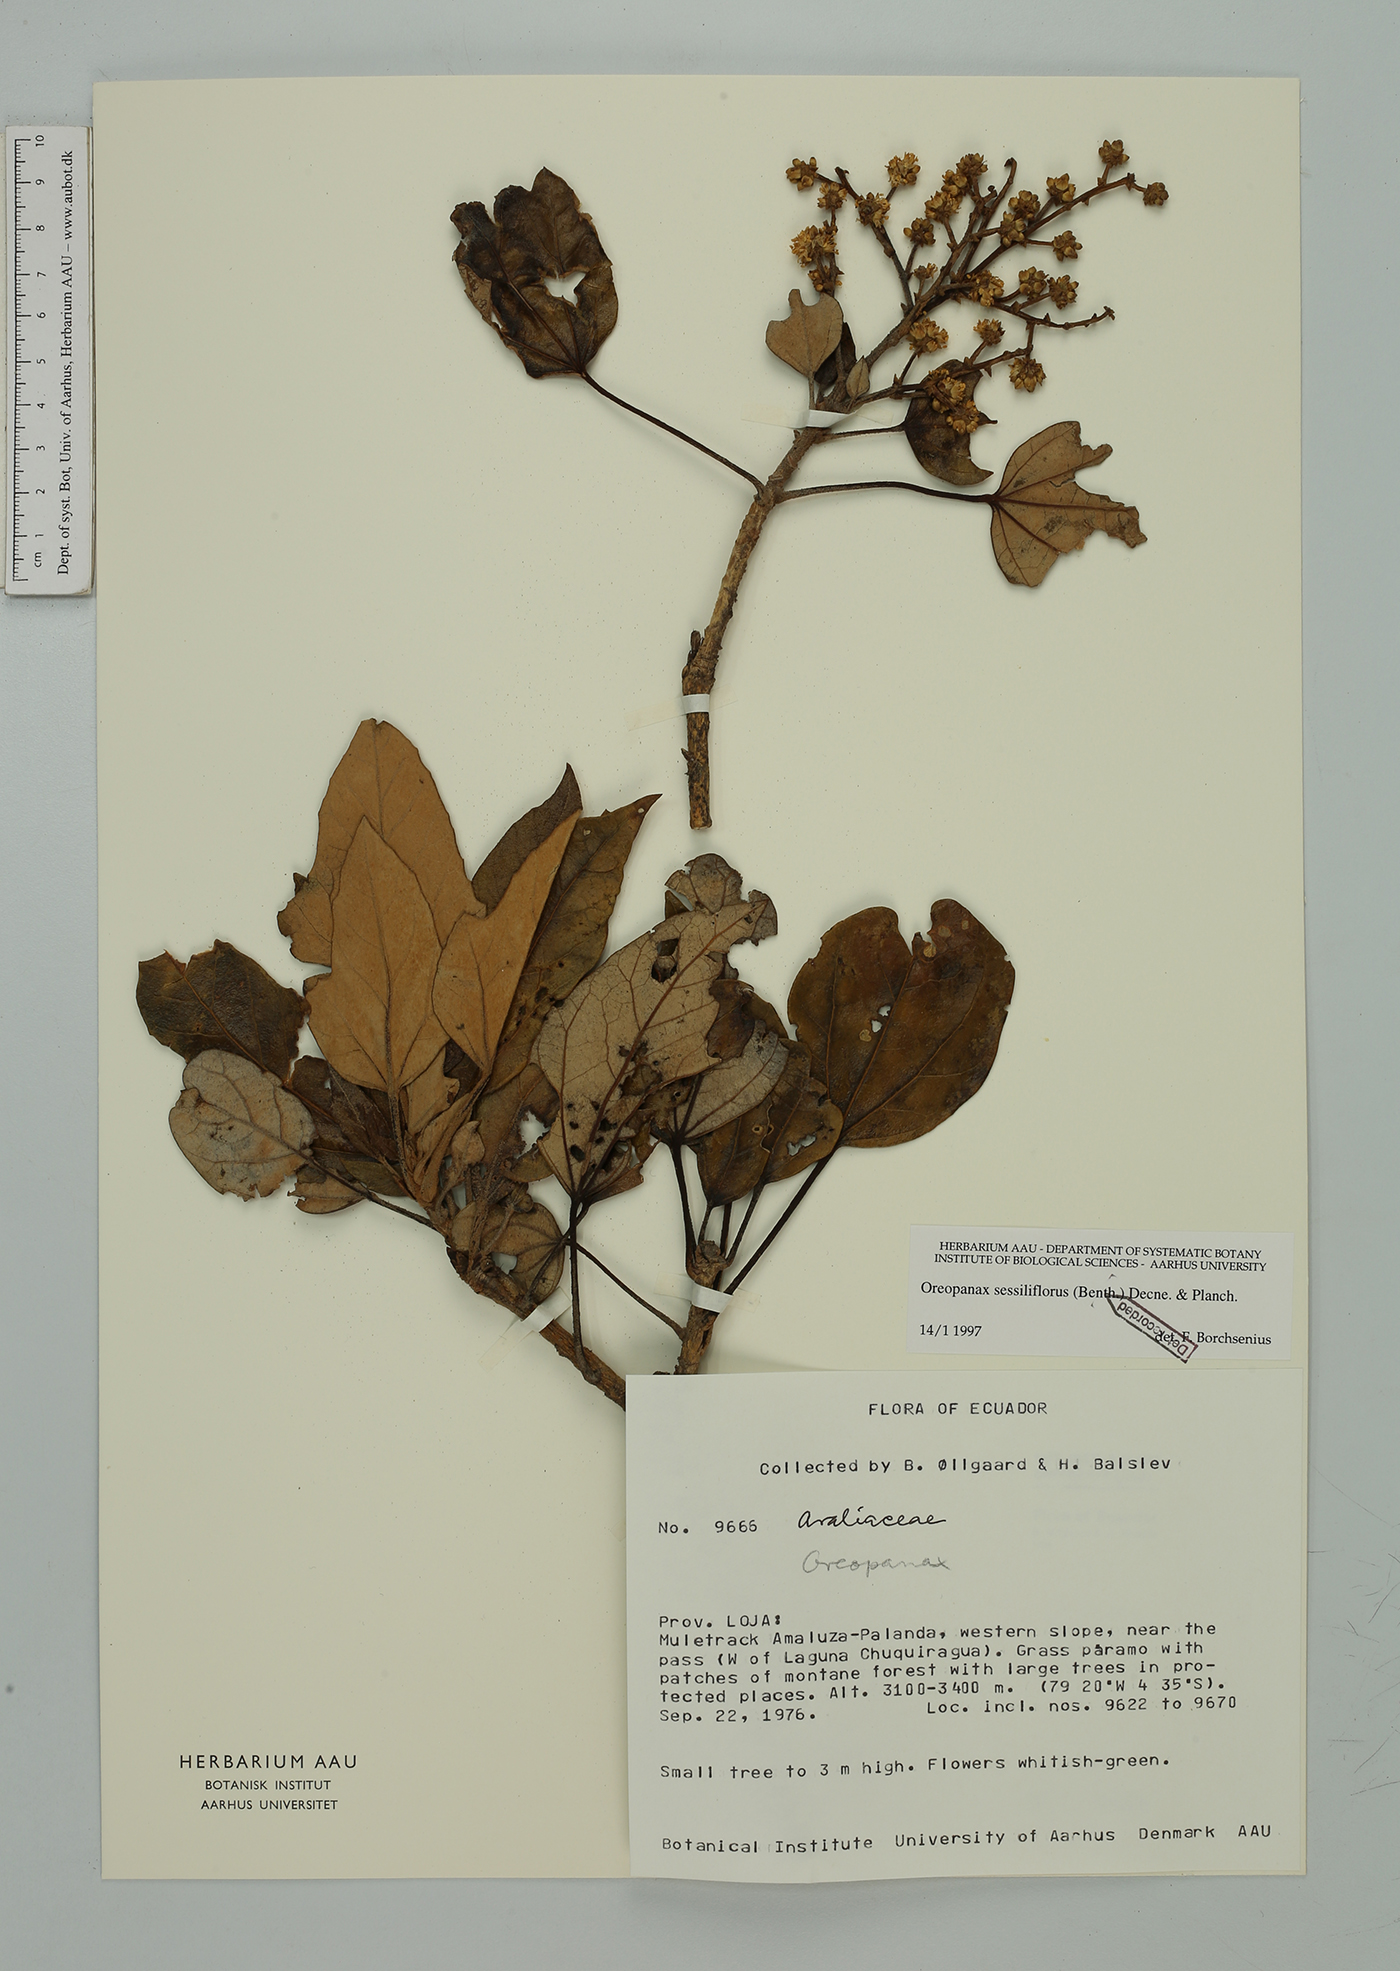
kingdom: Plantae
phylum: Tracheophyta
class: Magnoliopsida
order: Apiales
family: Araliaceae
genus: Oreopanax
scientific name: Oreopanax sessiliflorus
